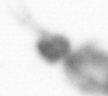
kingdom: Animalia
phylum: Arthropoda
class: Copepoda
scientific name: Copepoda
